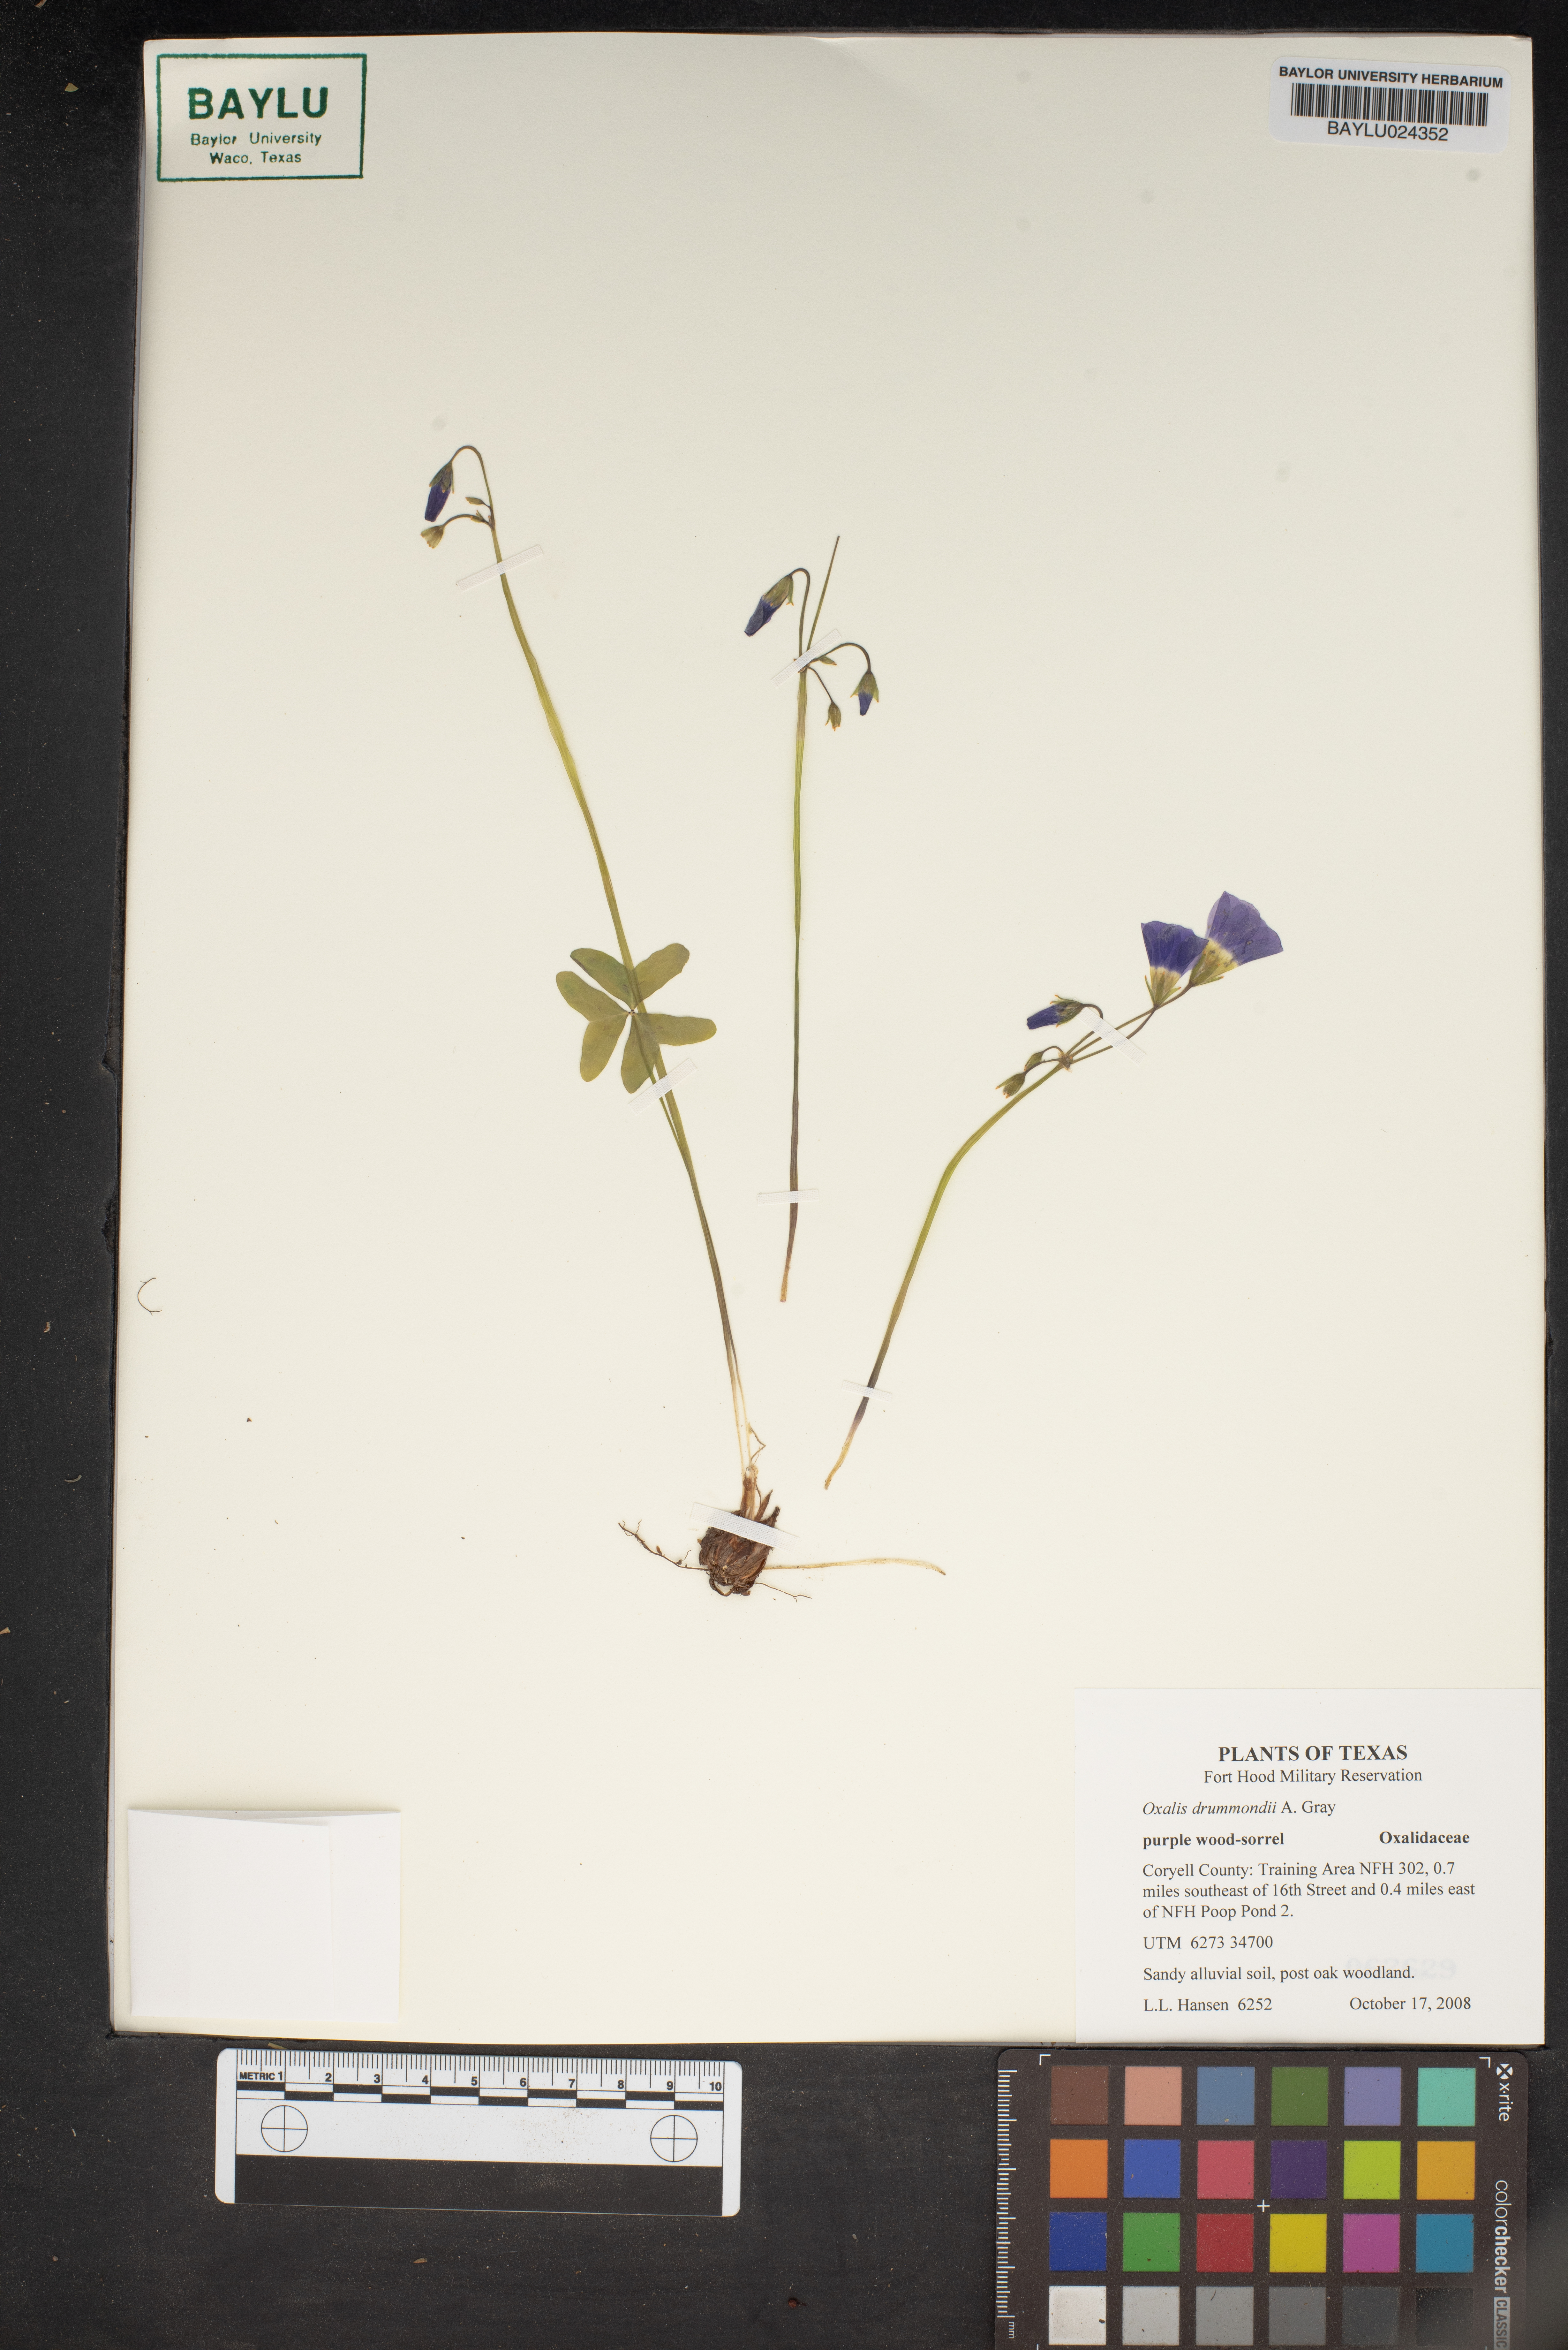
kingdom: Plantae
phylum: Tracheophyta
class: Magnoliopsida
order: Oxalidales
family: Oxalidaceae
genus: Oxalis
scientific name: Oxalis drummondii
